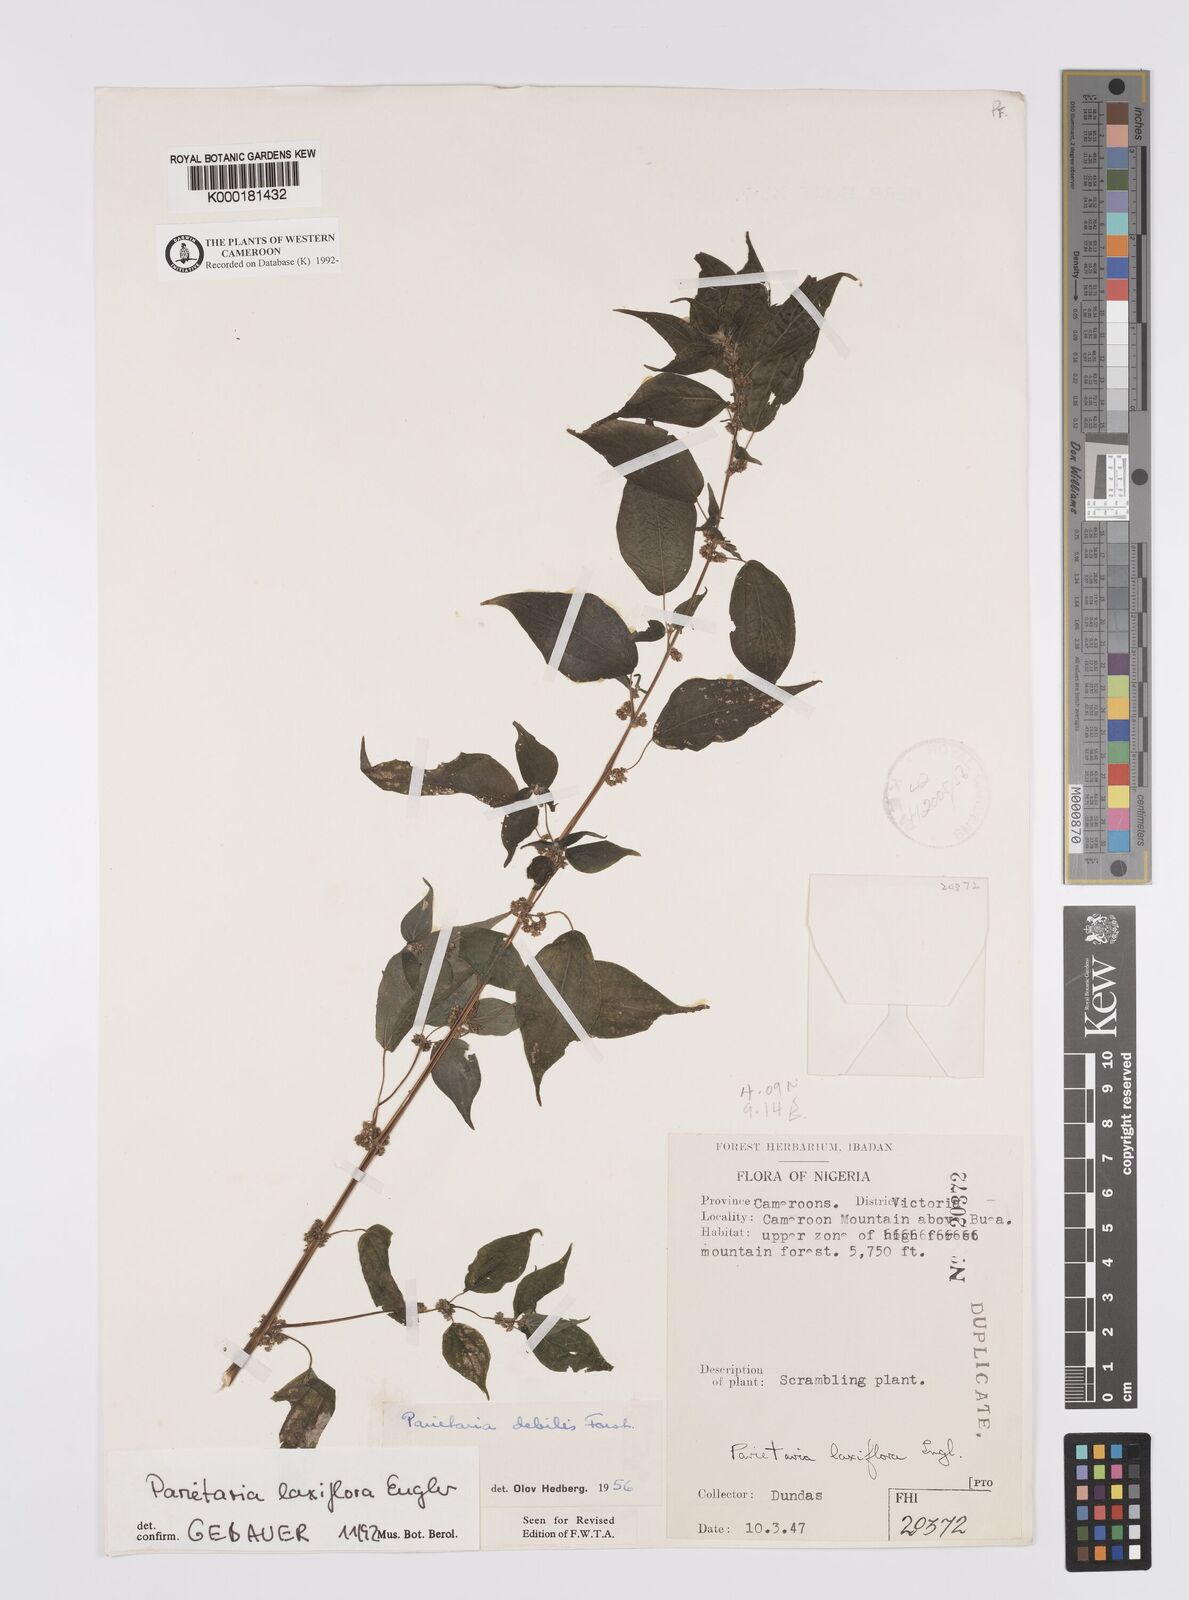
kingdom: Plantae
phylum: Tracheophyta
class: Magnoliopsida
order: Rosales
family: Urticaceae
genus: Parietaria
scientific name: Parietaria debilis
